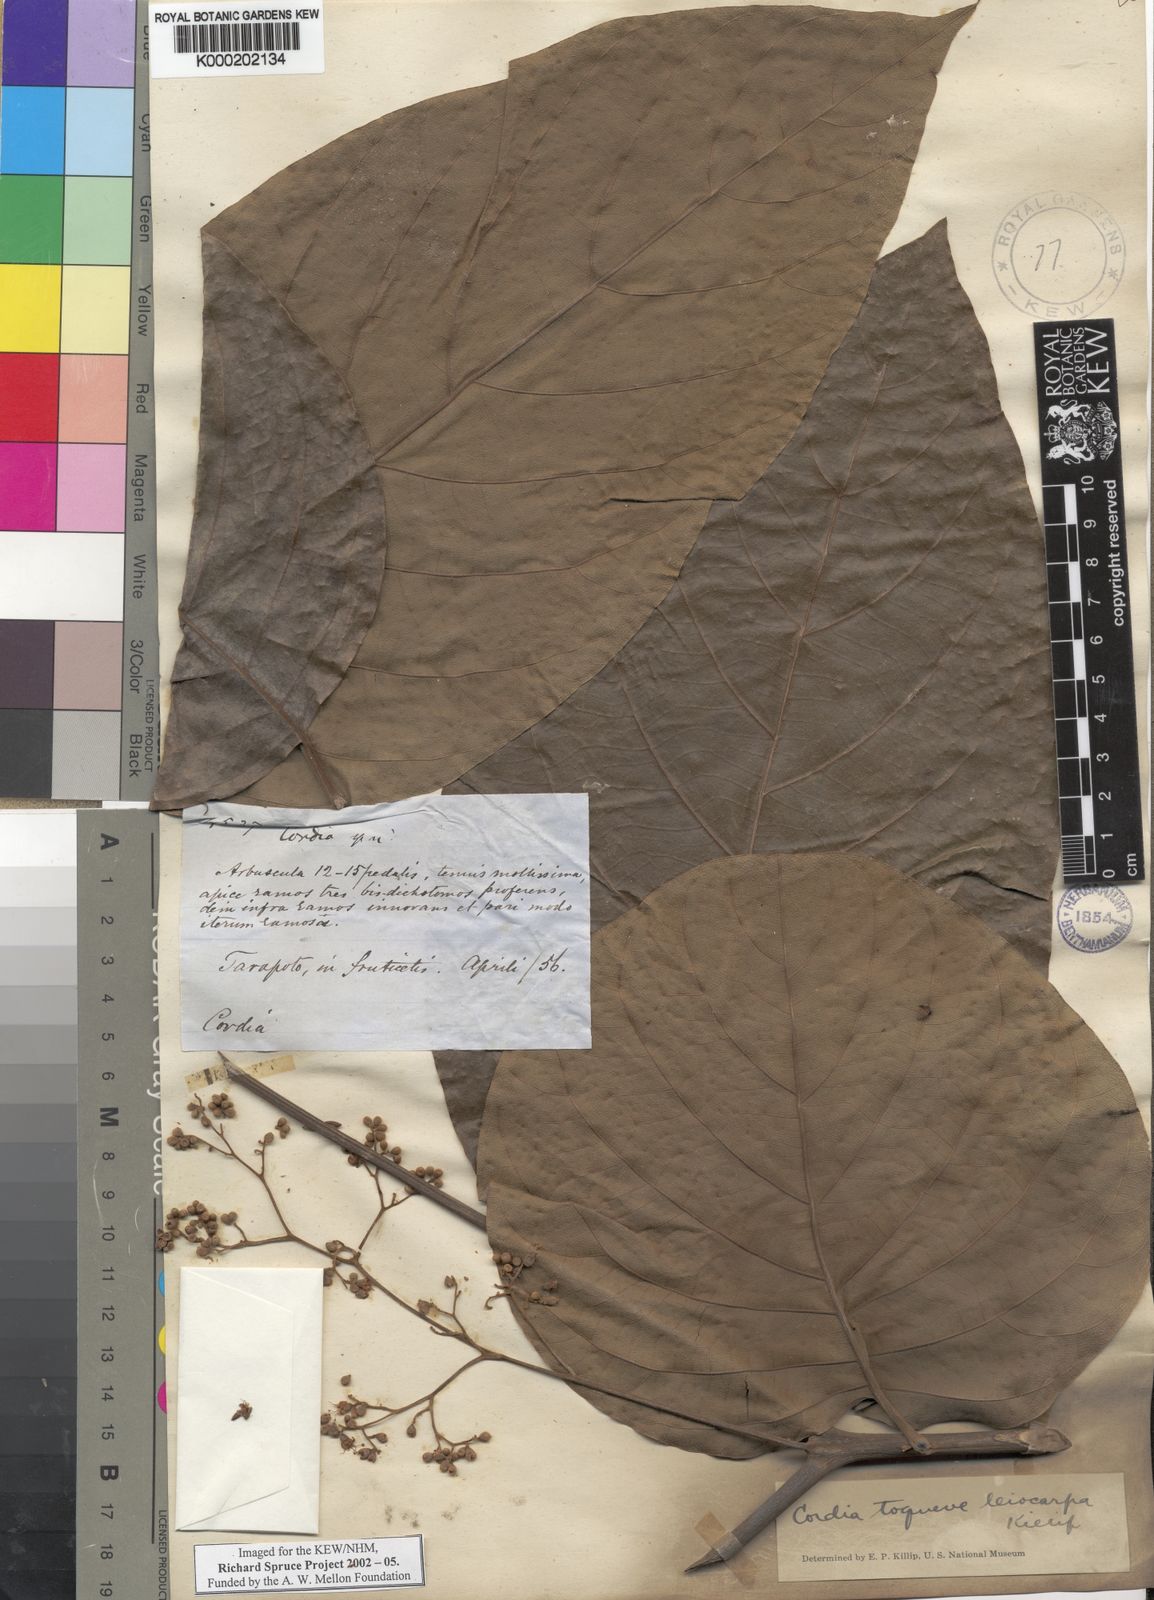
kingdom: Plantae
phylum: Tracheophyta
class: Magnoliopsida
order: Boraginales
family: Cordiaceae
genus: Cordia
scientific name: Cordia toqueve
